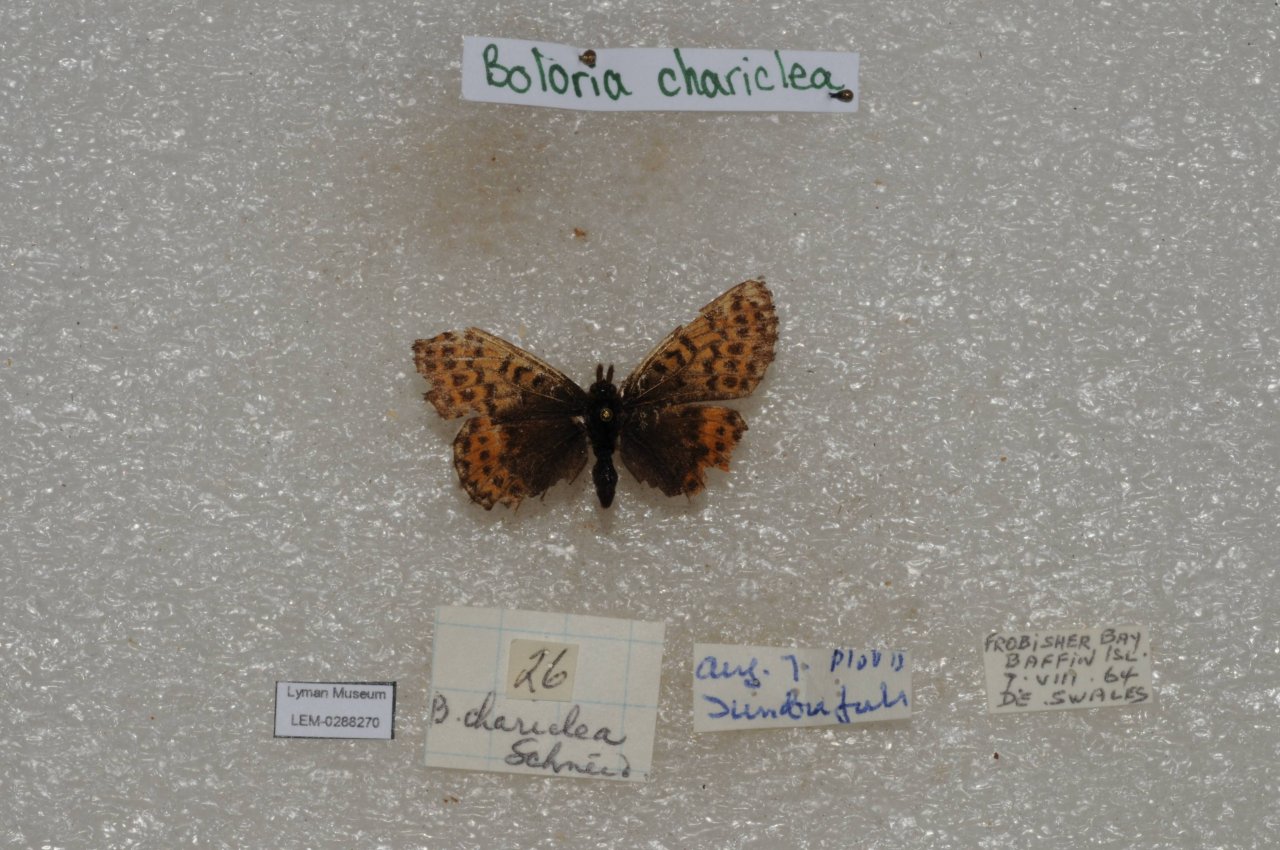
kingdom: Animalia
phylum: Arthropoda
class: Insecta
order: Lepidoptera
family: Nymphalidae
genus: Boloria
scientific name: Boloria chariclea
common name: Arctic Fritillary
